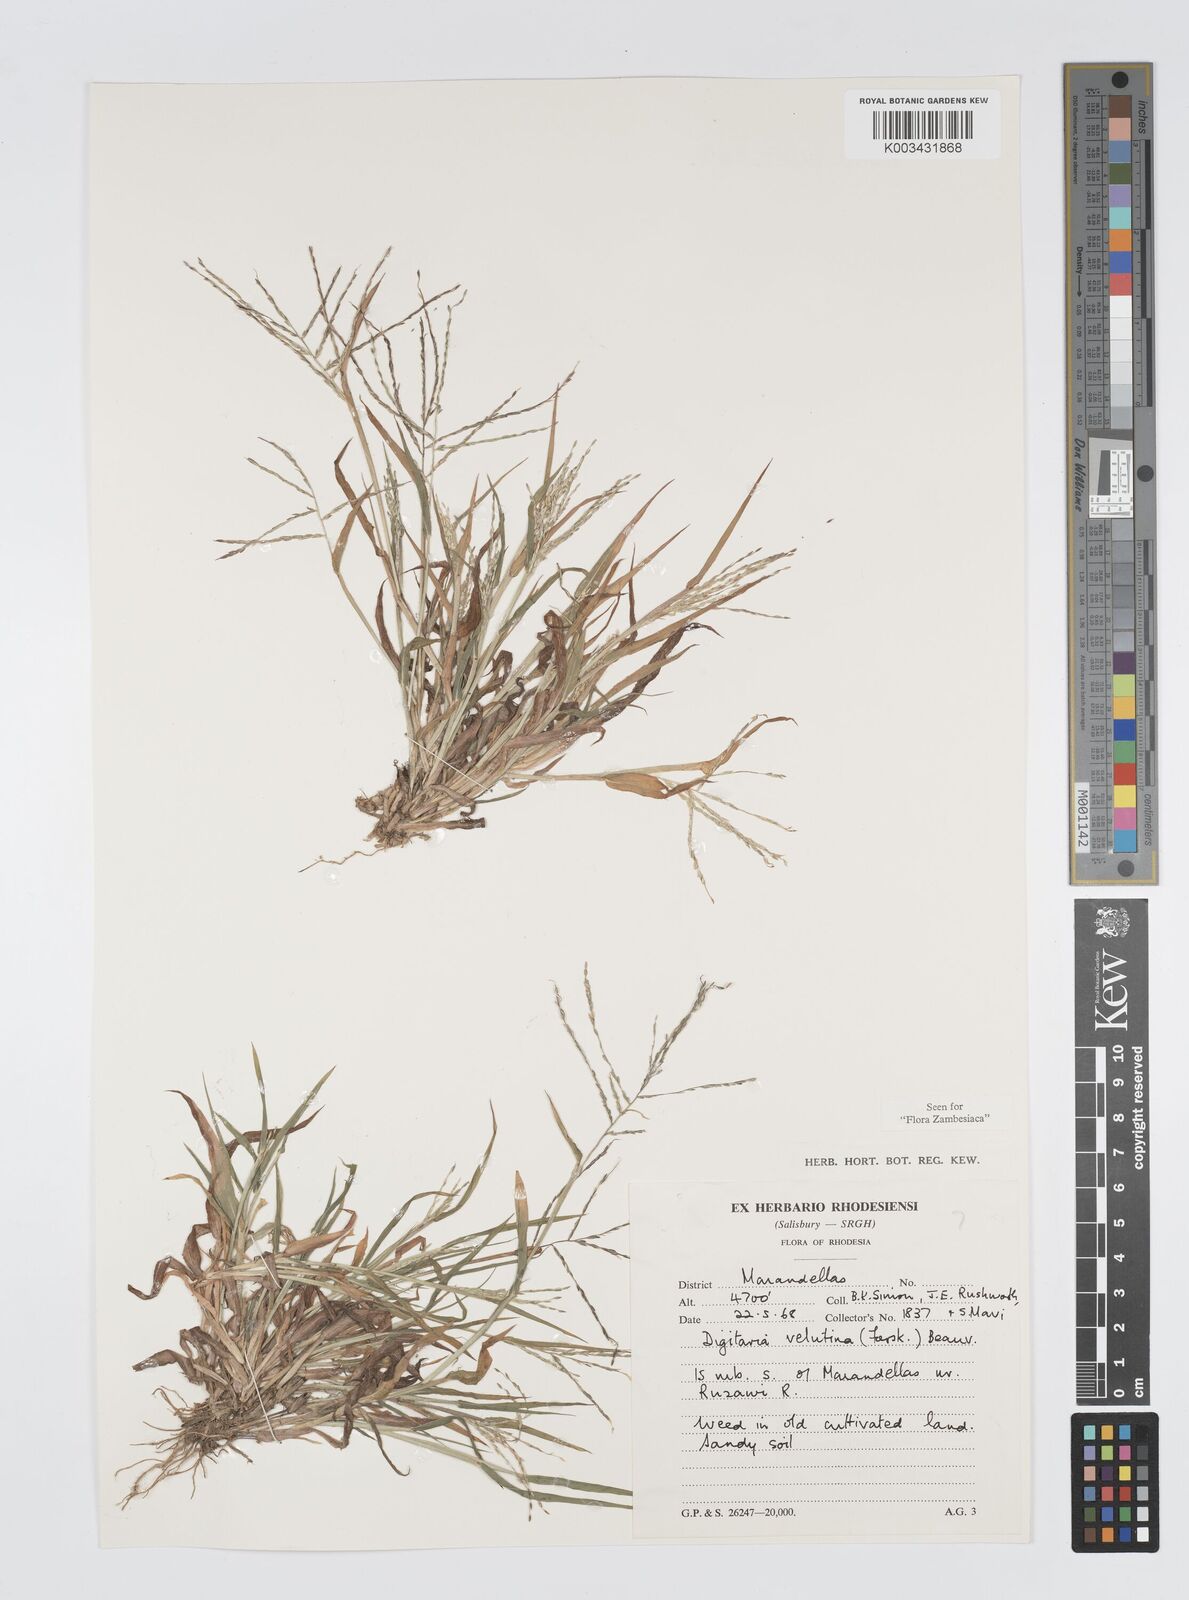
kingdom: Plantae
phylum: Tracheophyta
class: Liliopsida
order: Poales
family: Poaceae
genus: Digitaria
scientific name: Digitaria velutina
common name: Long-plume finger grass
